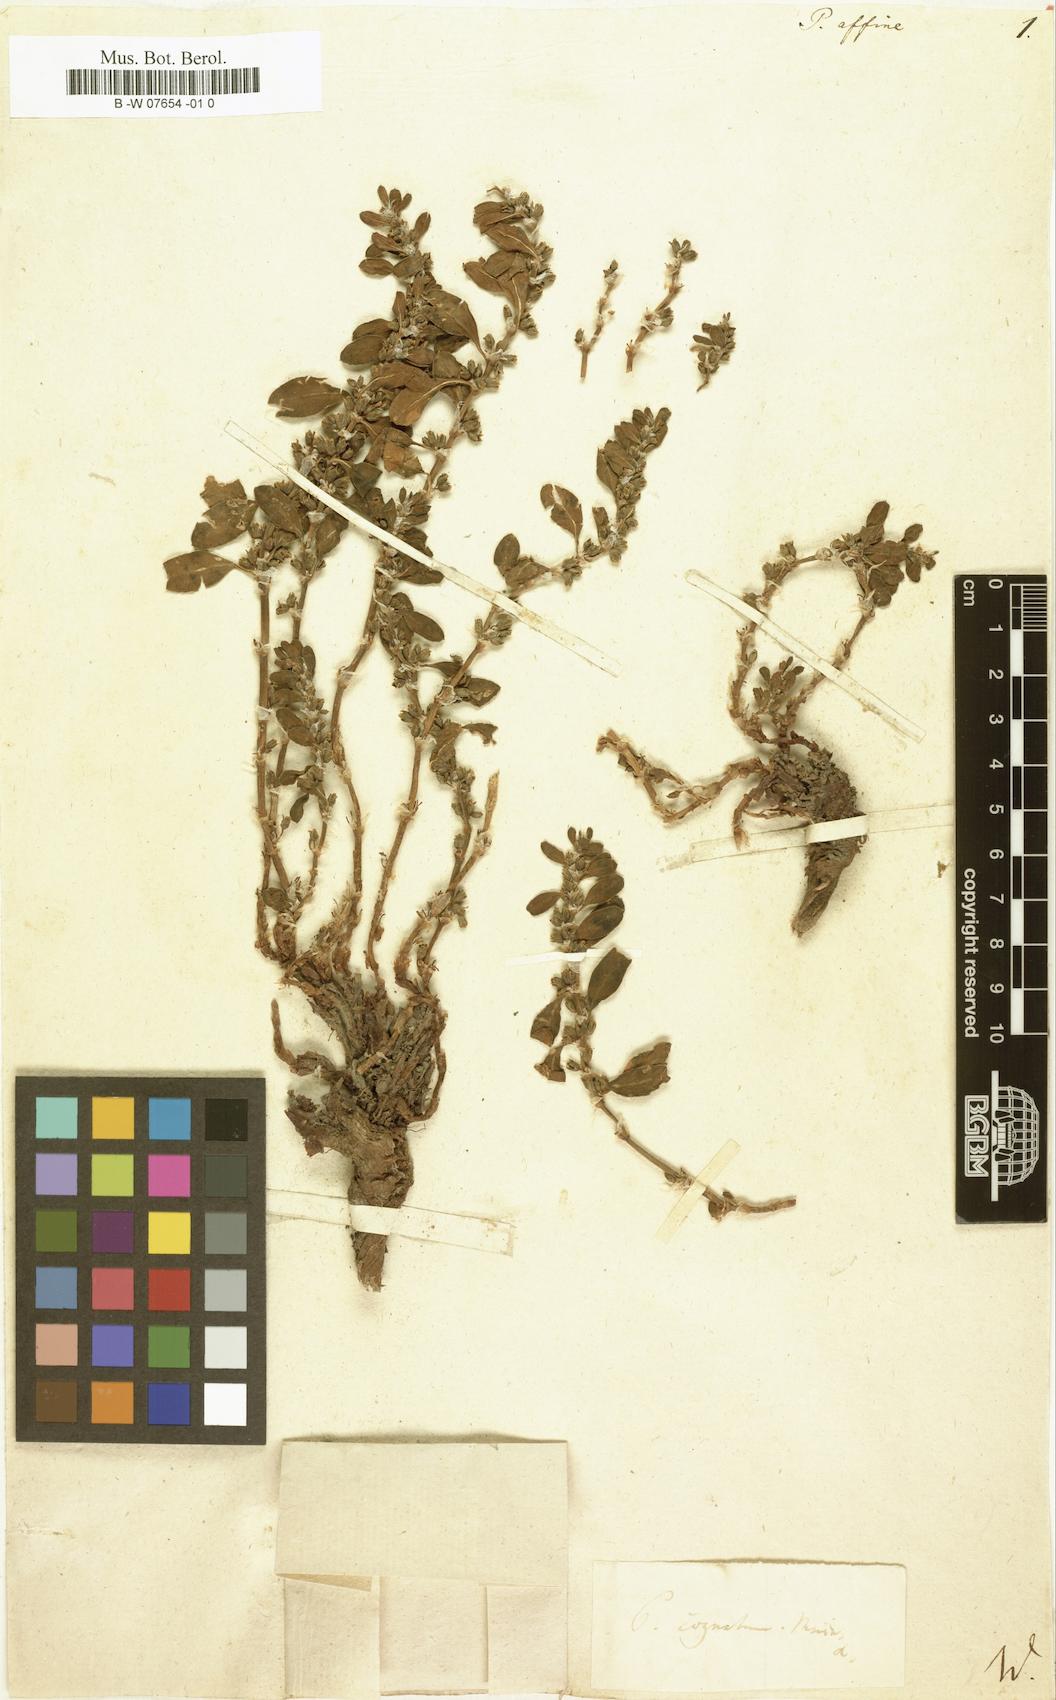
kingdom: Plantae
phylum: Tracheophyta
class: Magnoliopsida
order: Caryophyllales
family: Polygonaceae
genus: Bistorta
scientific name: Bistorta affinis
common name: Himalayan fleeceflower
